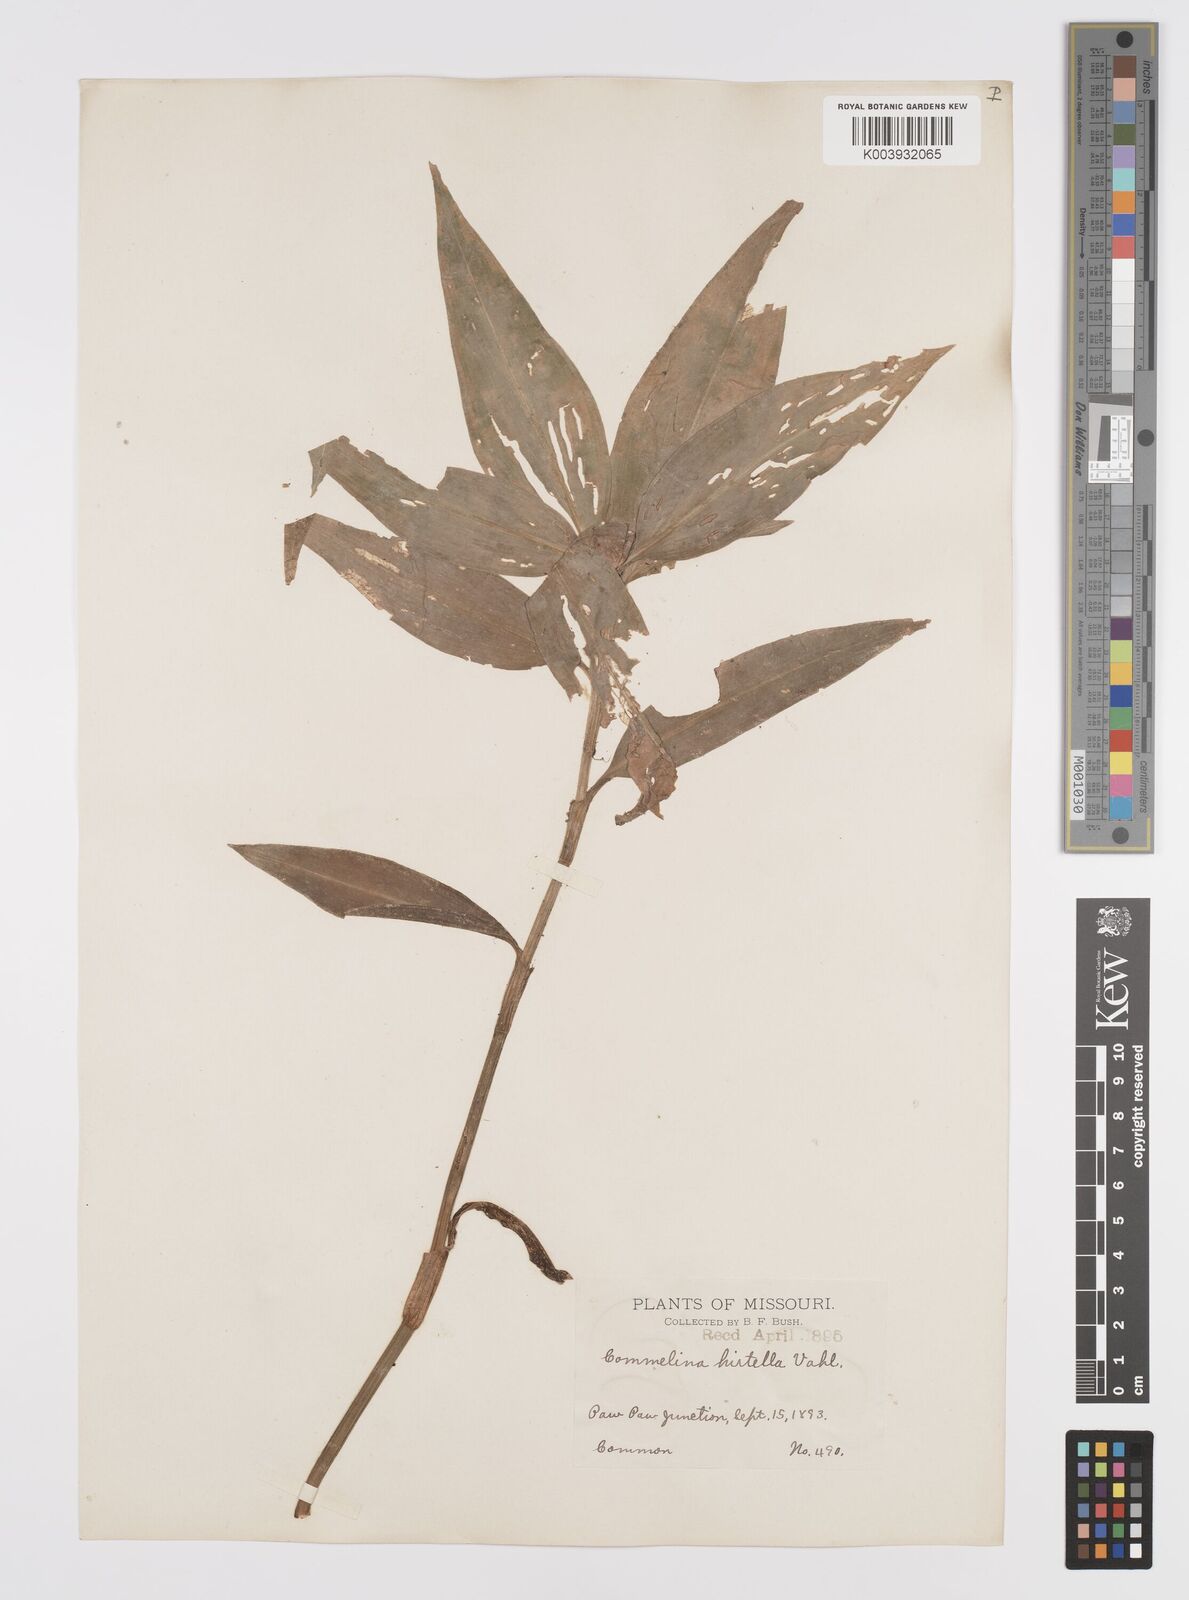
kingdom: Plantae
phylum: Tracheophyta
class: Liliopsida
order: Commelinales
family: Commelinaceae
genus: Commelina
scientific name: Commelina virginica
